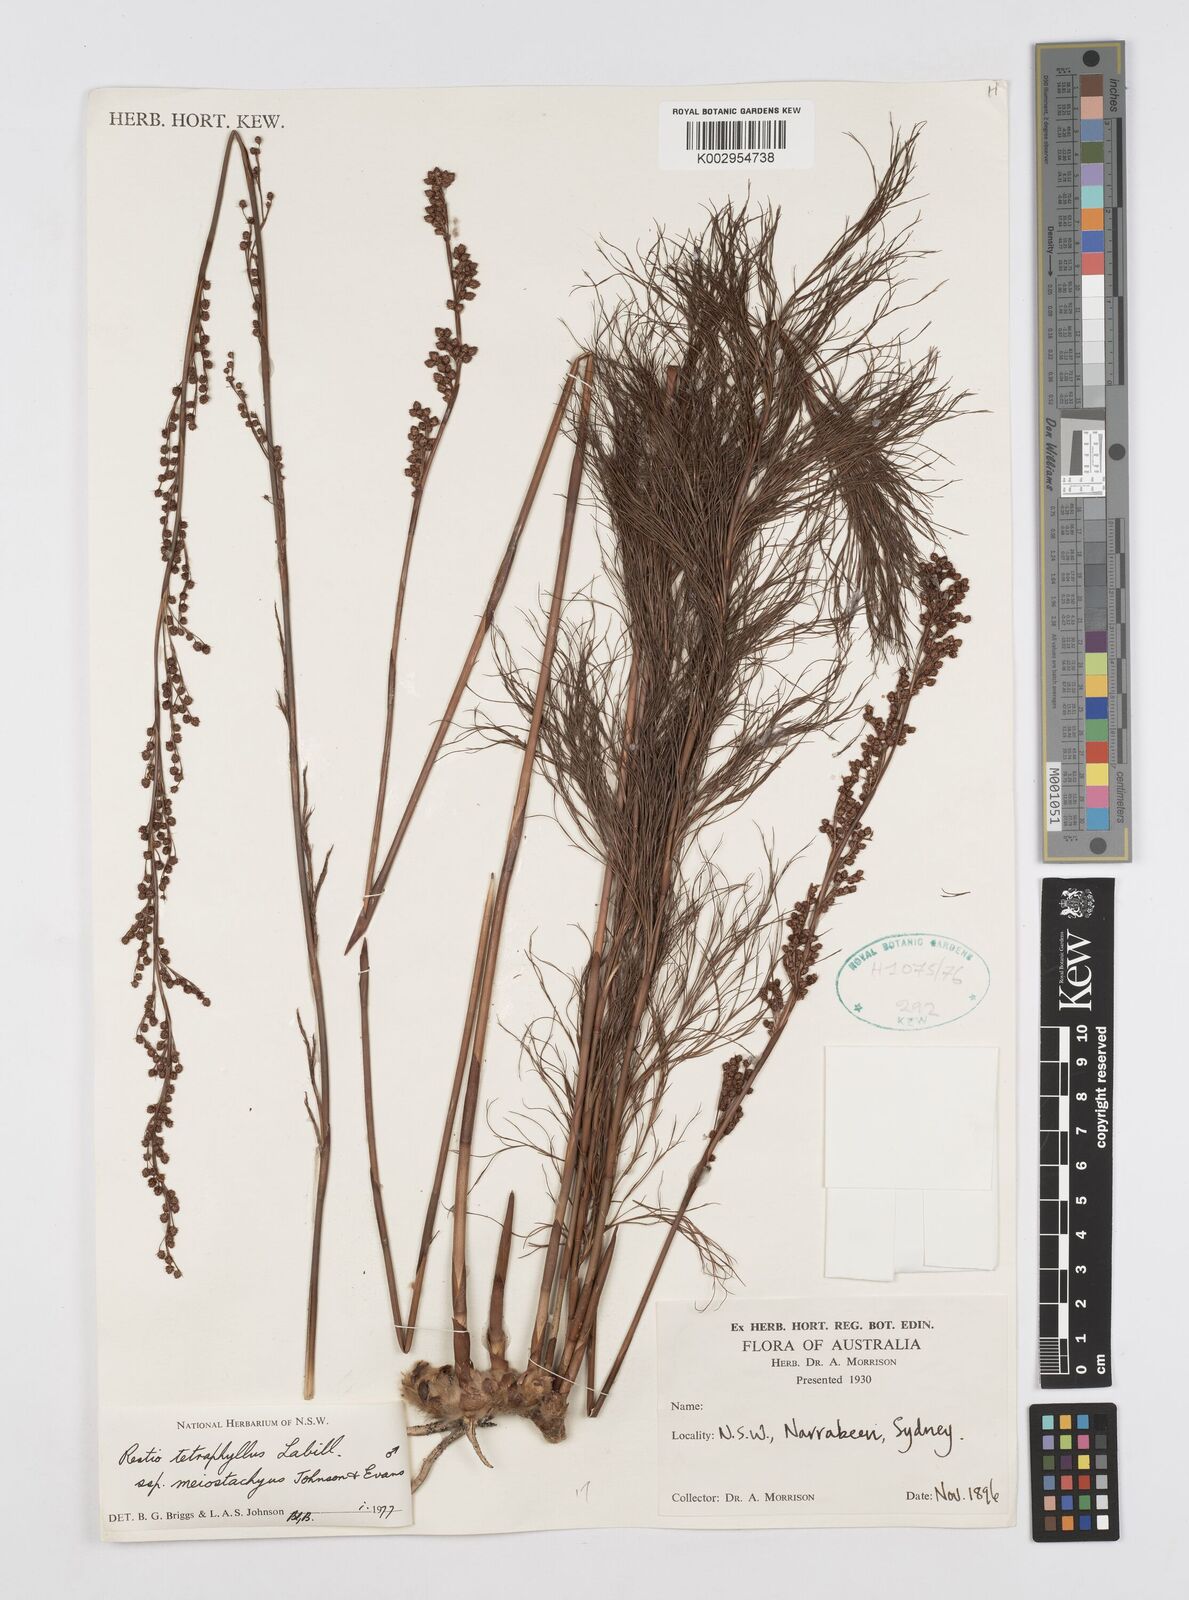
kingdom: Plantae
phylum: Tracheophyta
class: Liliopsida
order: Poales
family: Restionaceae
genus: Baloskion
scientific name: Baloskion tetraphyllum
